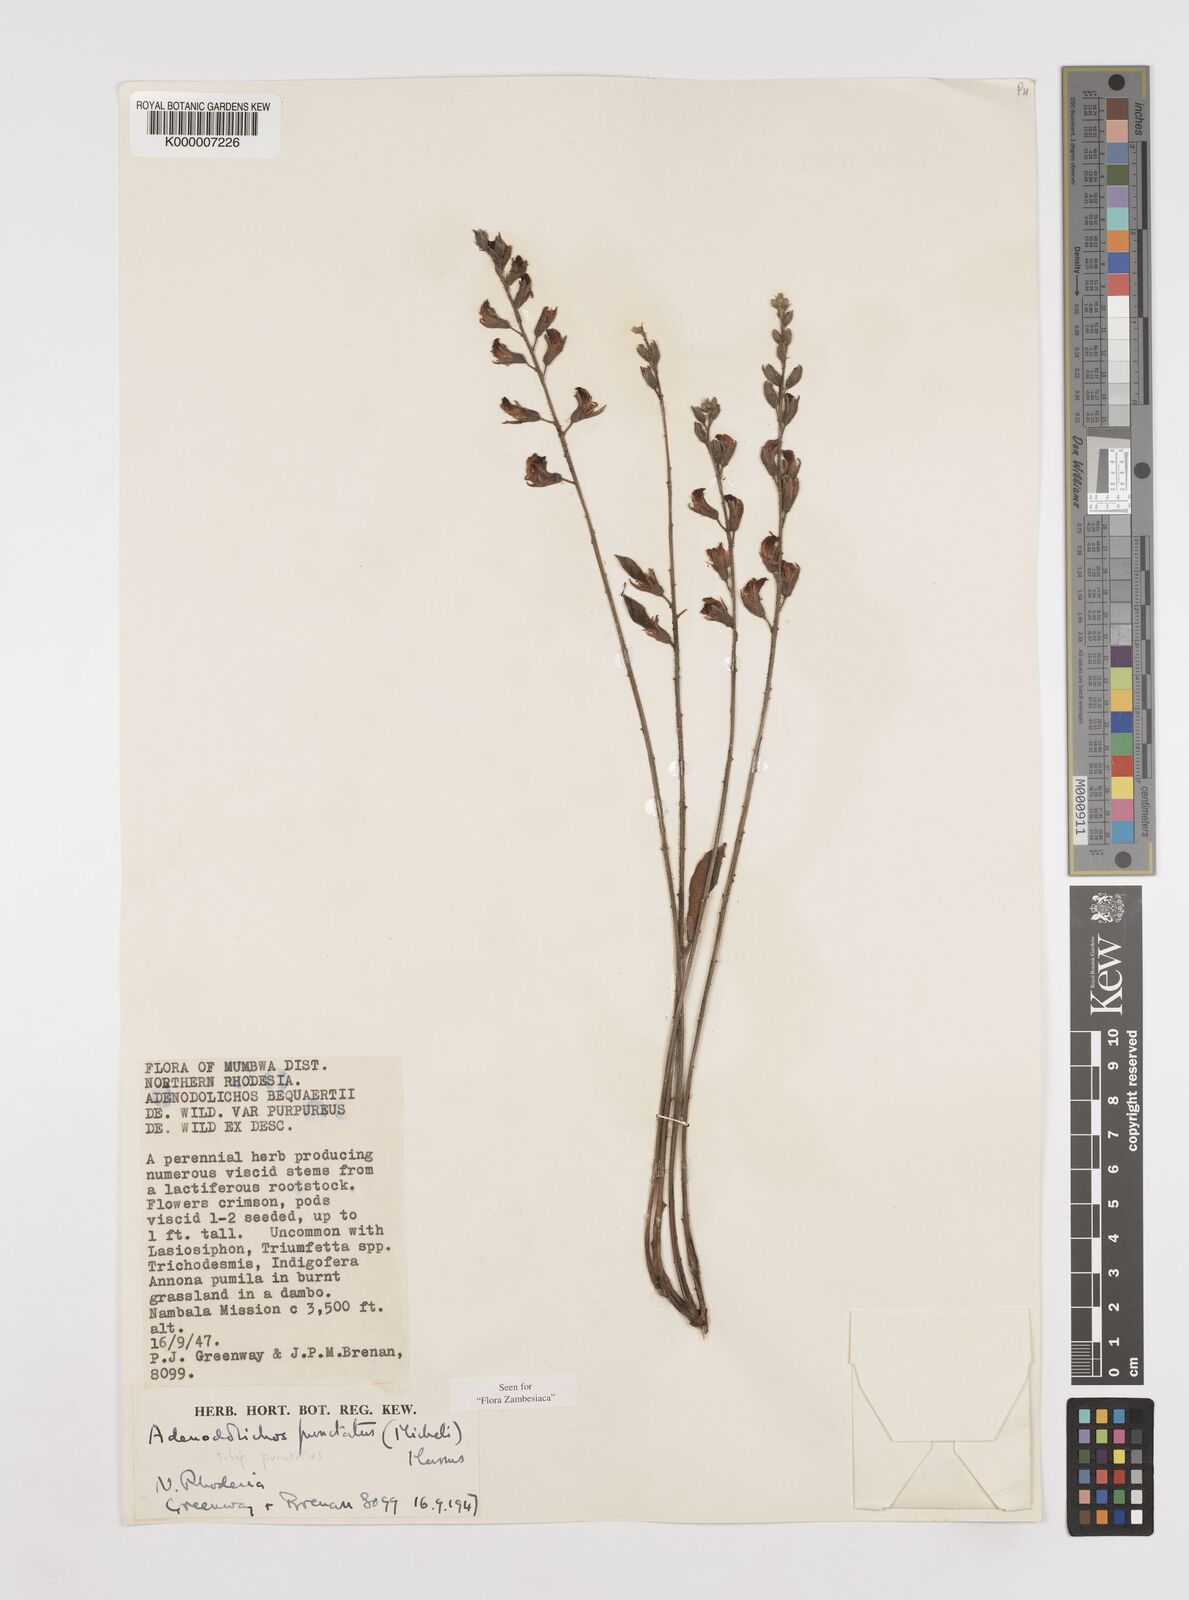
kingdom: Plantae
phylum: Tracheophyta
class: Magnoliopsida
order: Fabales
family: Fabaceae
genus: Adenodolichos
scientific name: Adenodolichos punctatus
